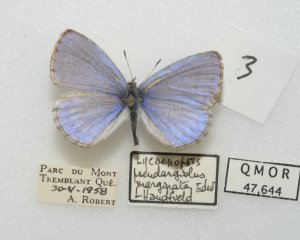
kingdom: Animalia
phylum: Arthropoda
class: Insecta
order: Lepidoptera
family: Lycaenidae
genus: Celastrina
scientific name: Celastrina lucia
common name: Northern Spring Azure
